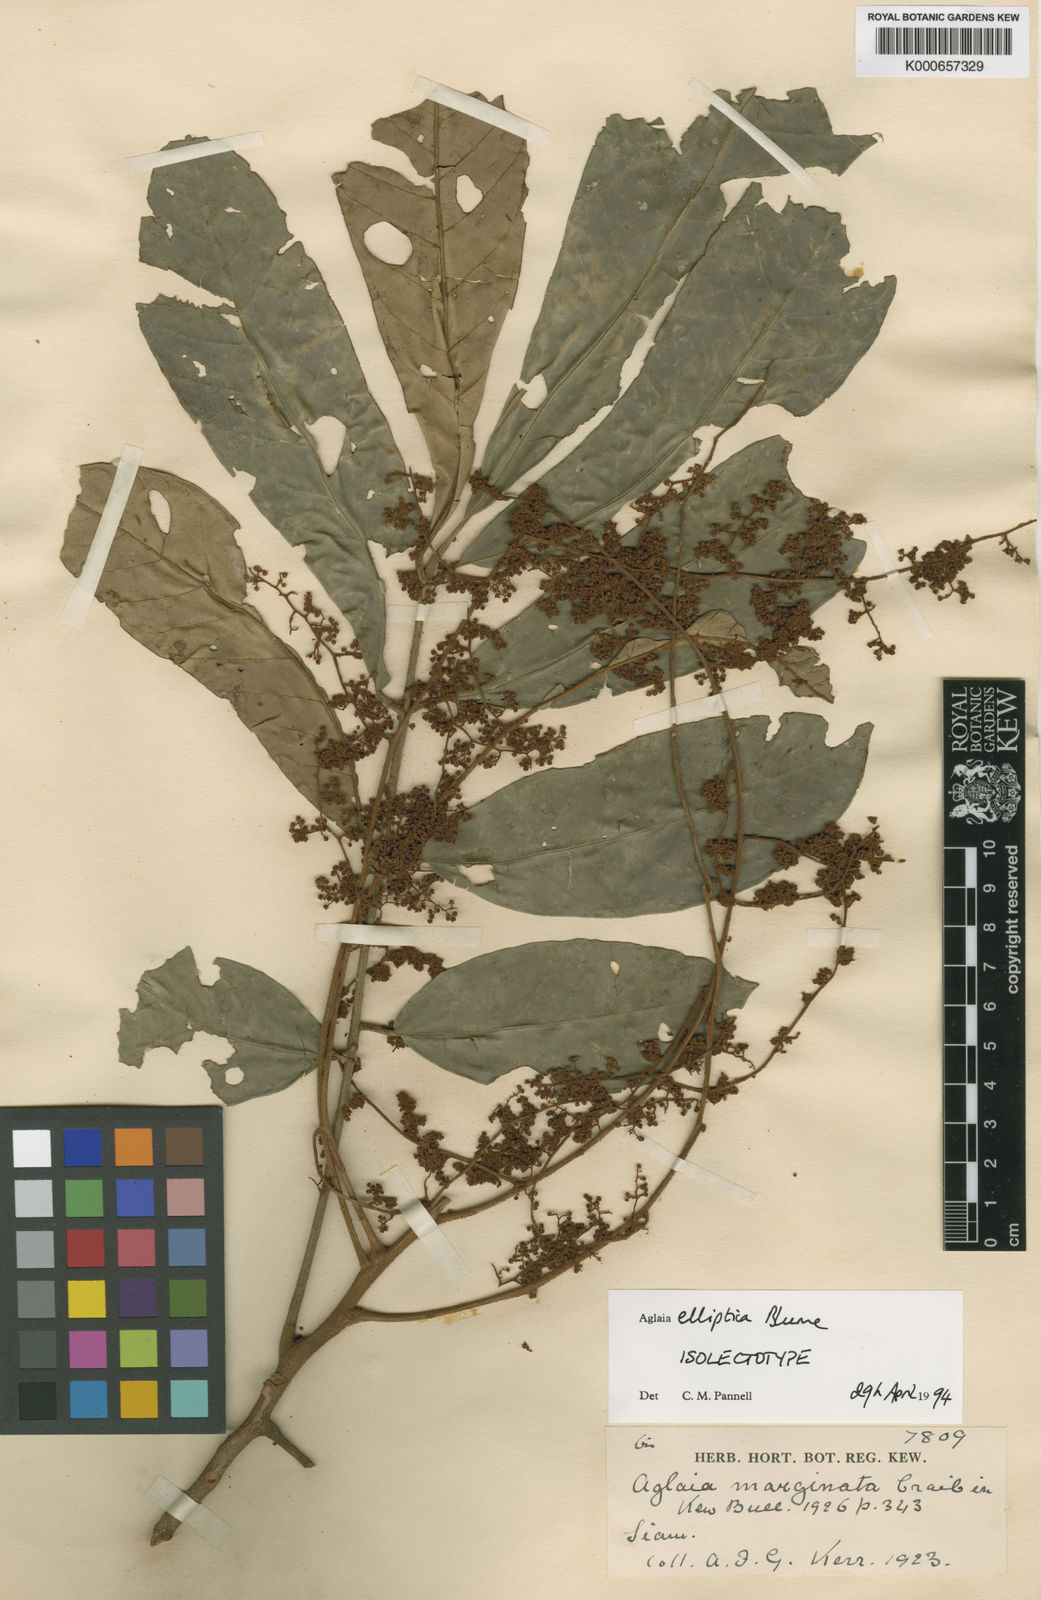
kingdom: Plantae
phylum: Tracheophyta
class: Magnoliopsida
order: Sapindales
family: Meliaceae
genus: Aglaia
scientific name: Aglaia elliptica
